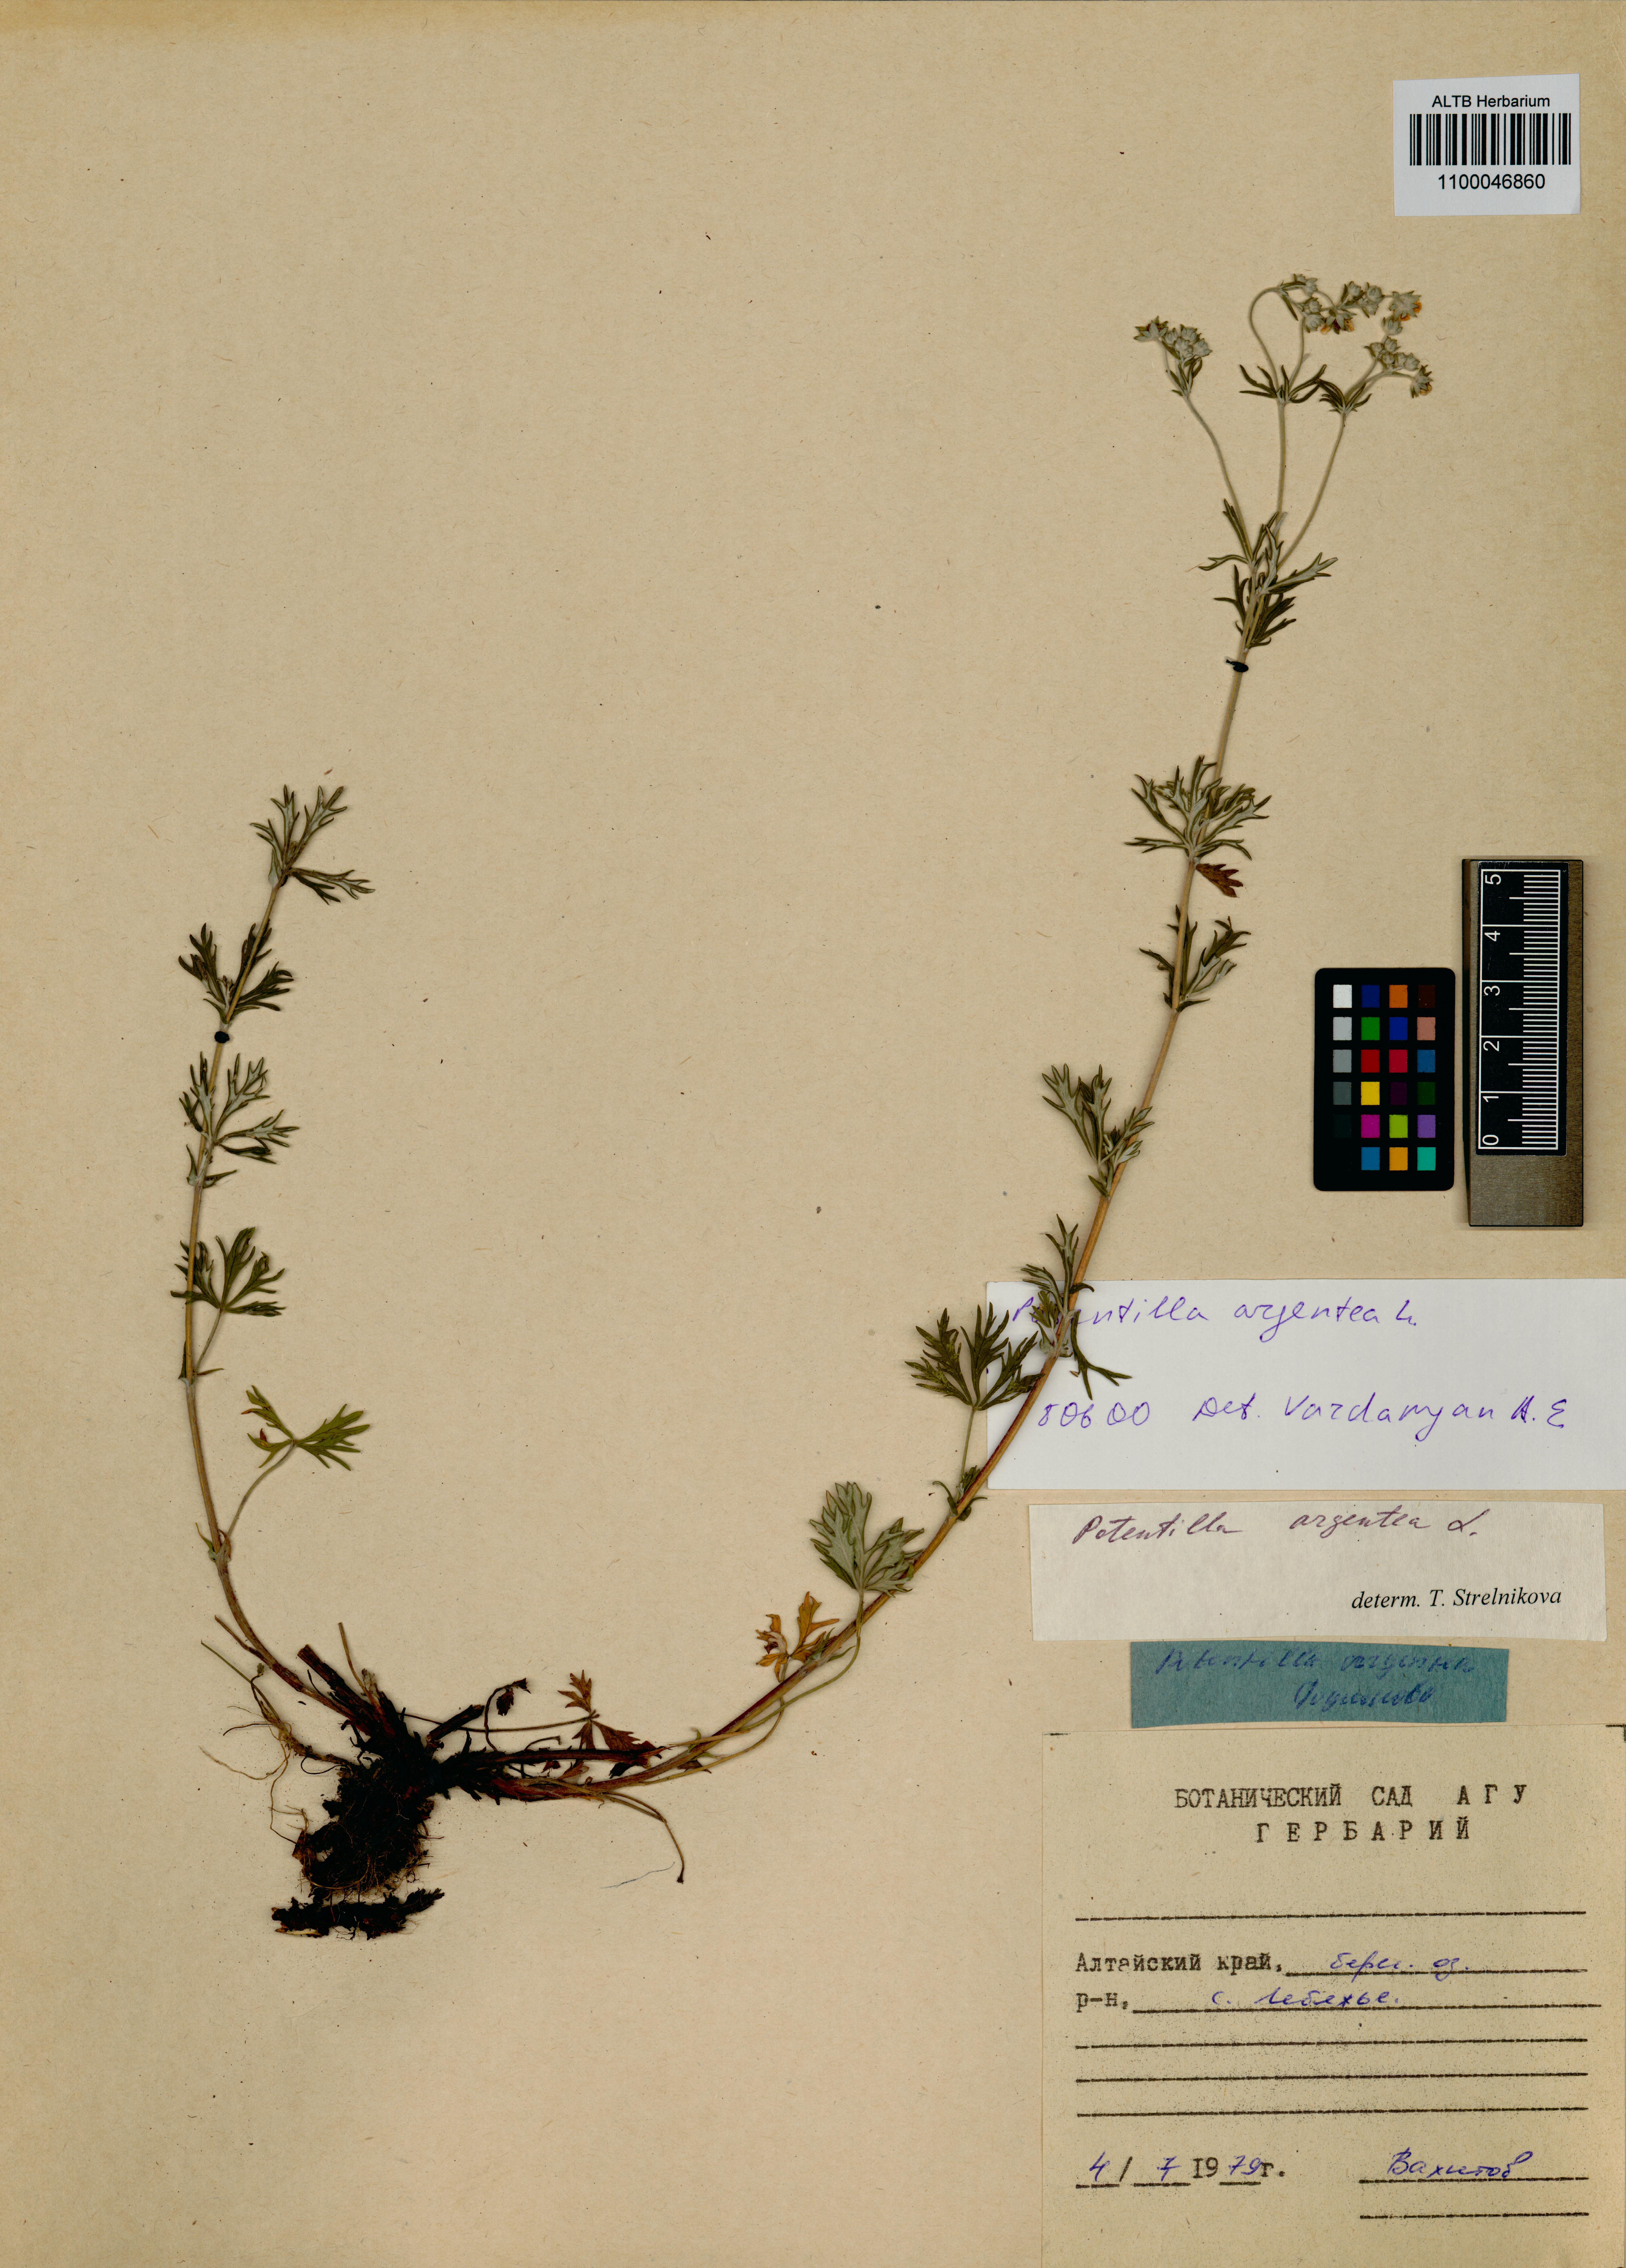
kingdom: Plantae
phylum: Tracheophyta
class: Magnoliopsida
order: Rosales
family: Rosaceae
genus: Potentilla
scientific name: Potentilla argentea
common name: Hoary cinquefoil
